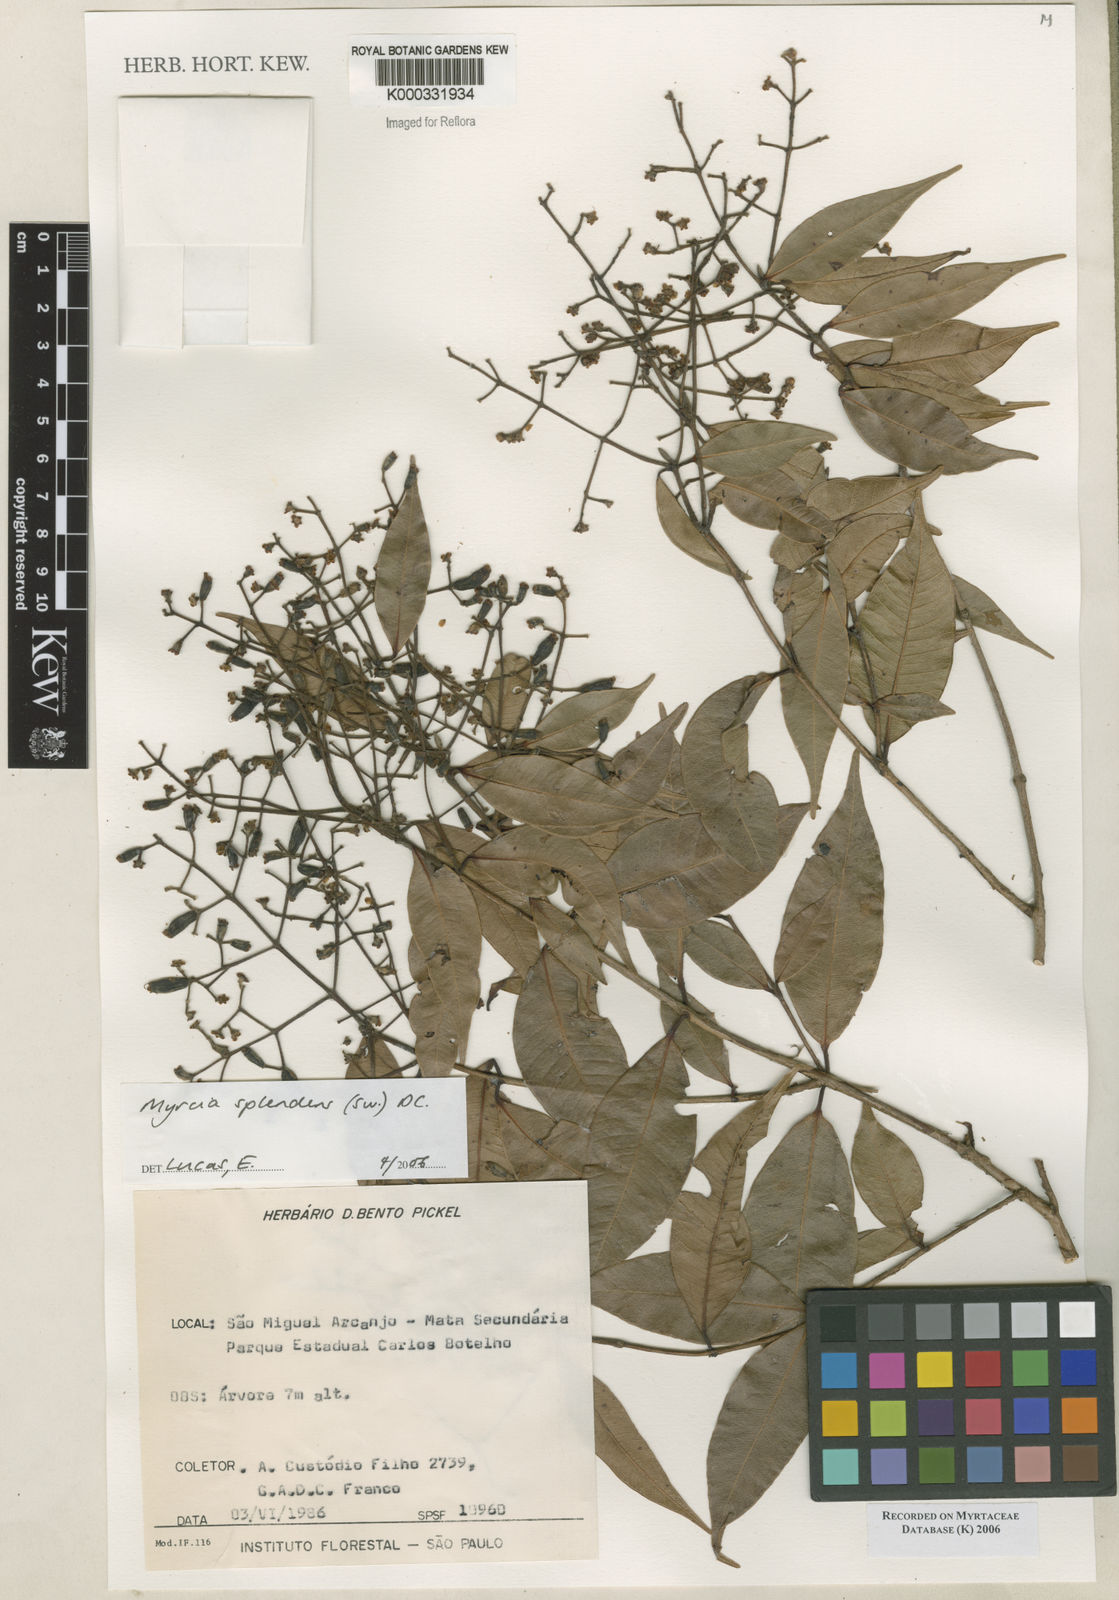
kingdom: Plantae
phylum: Tracheophyta
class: Magnoliopsida
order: Myrtales
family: Myrtaceae
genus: Myrcia
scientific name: Myrcia splendens
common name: Surinam cherry
